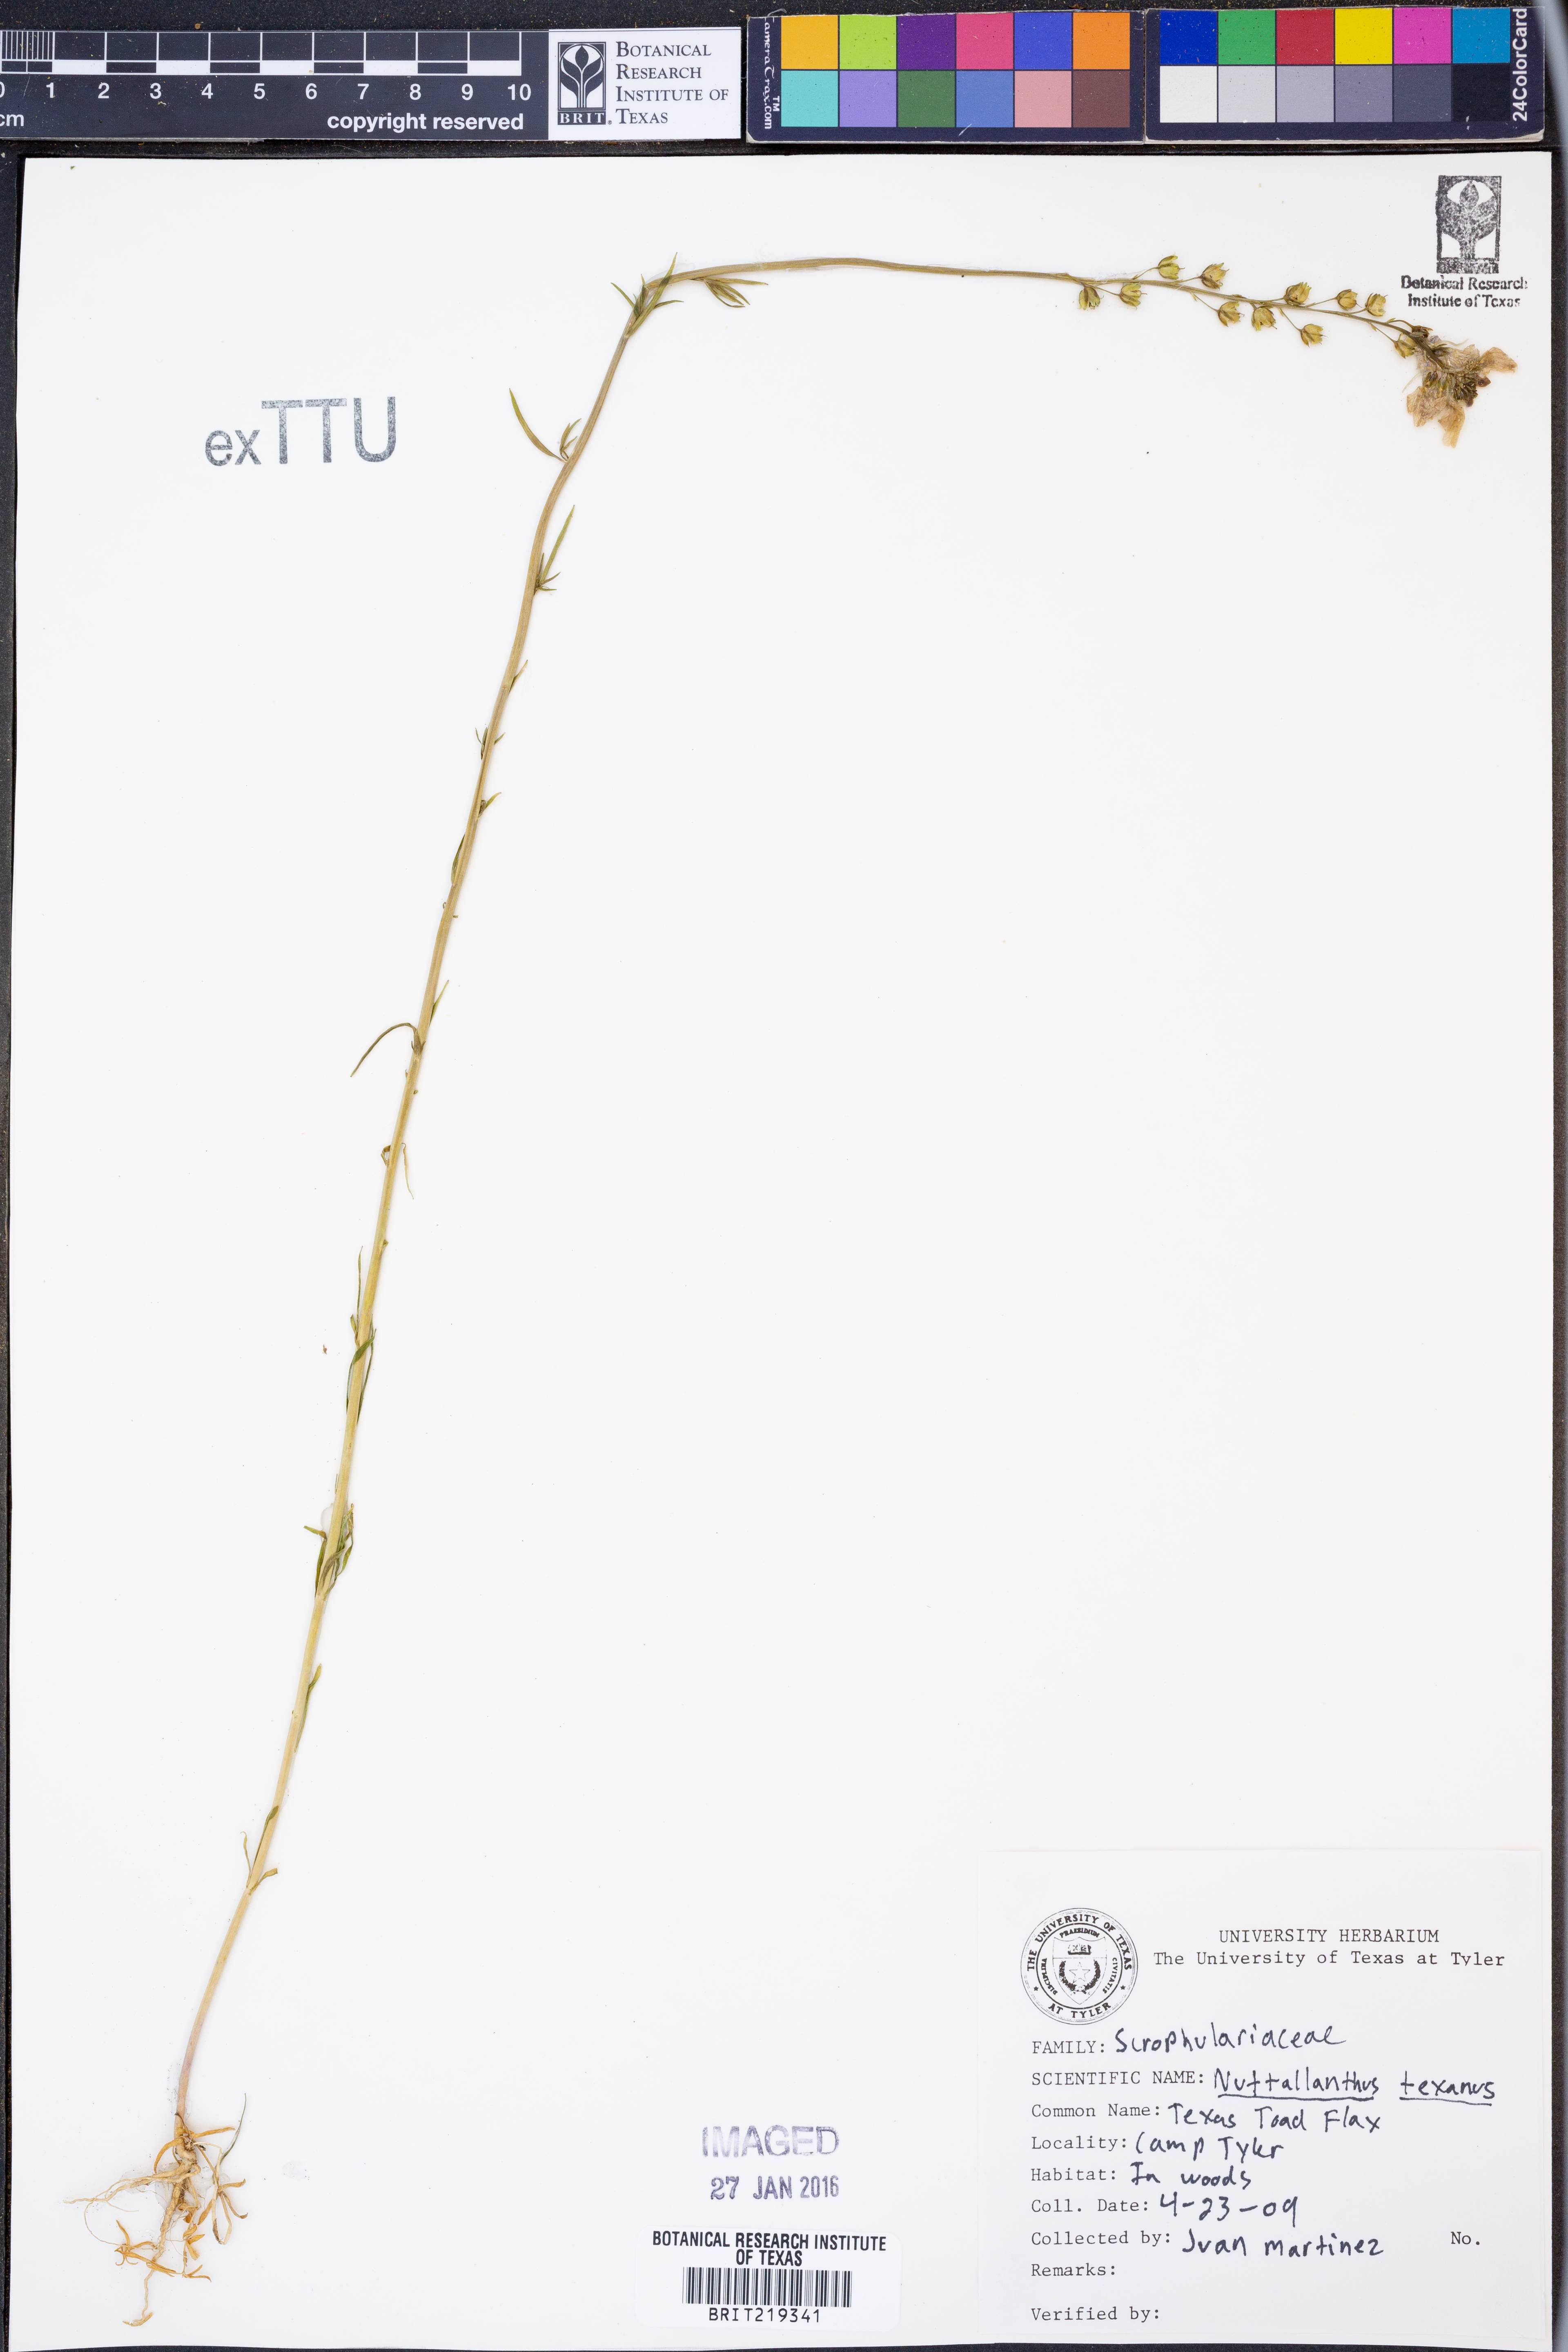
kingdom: Plantae
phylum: Tracheophyta
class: Magnoliopsida
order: Lamiales
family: Plantaginaceae
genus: Nuttallanthus
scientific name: Nuttallanthus texanus
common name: Texas toadflax
